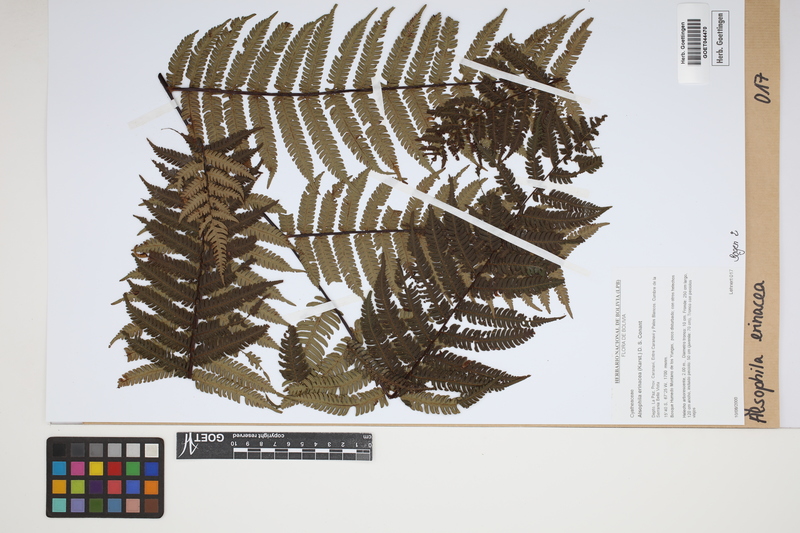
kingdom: Plantae
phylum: Tracheophyta
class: Polypodiopsida
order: Cyatheales
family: Cyatheaceae
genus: Alsophila
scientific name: Alsophila erinacea
